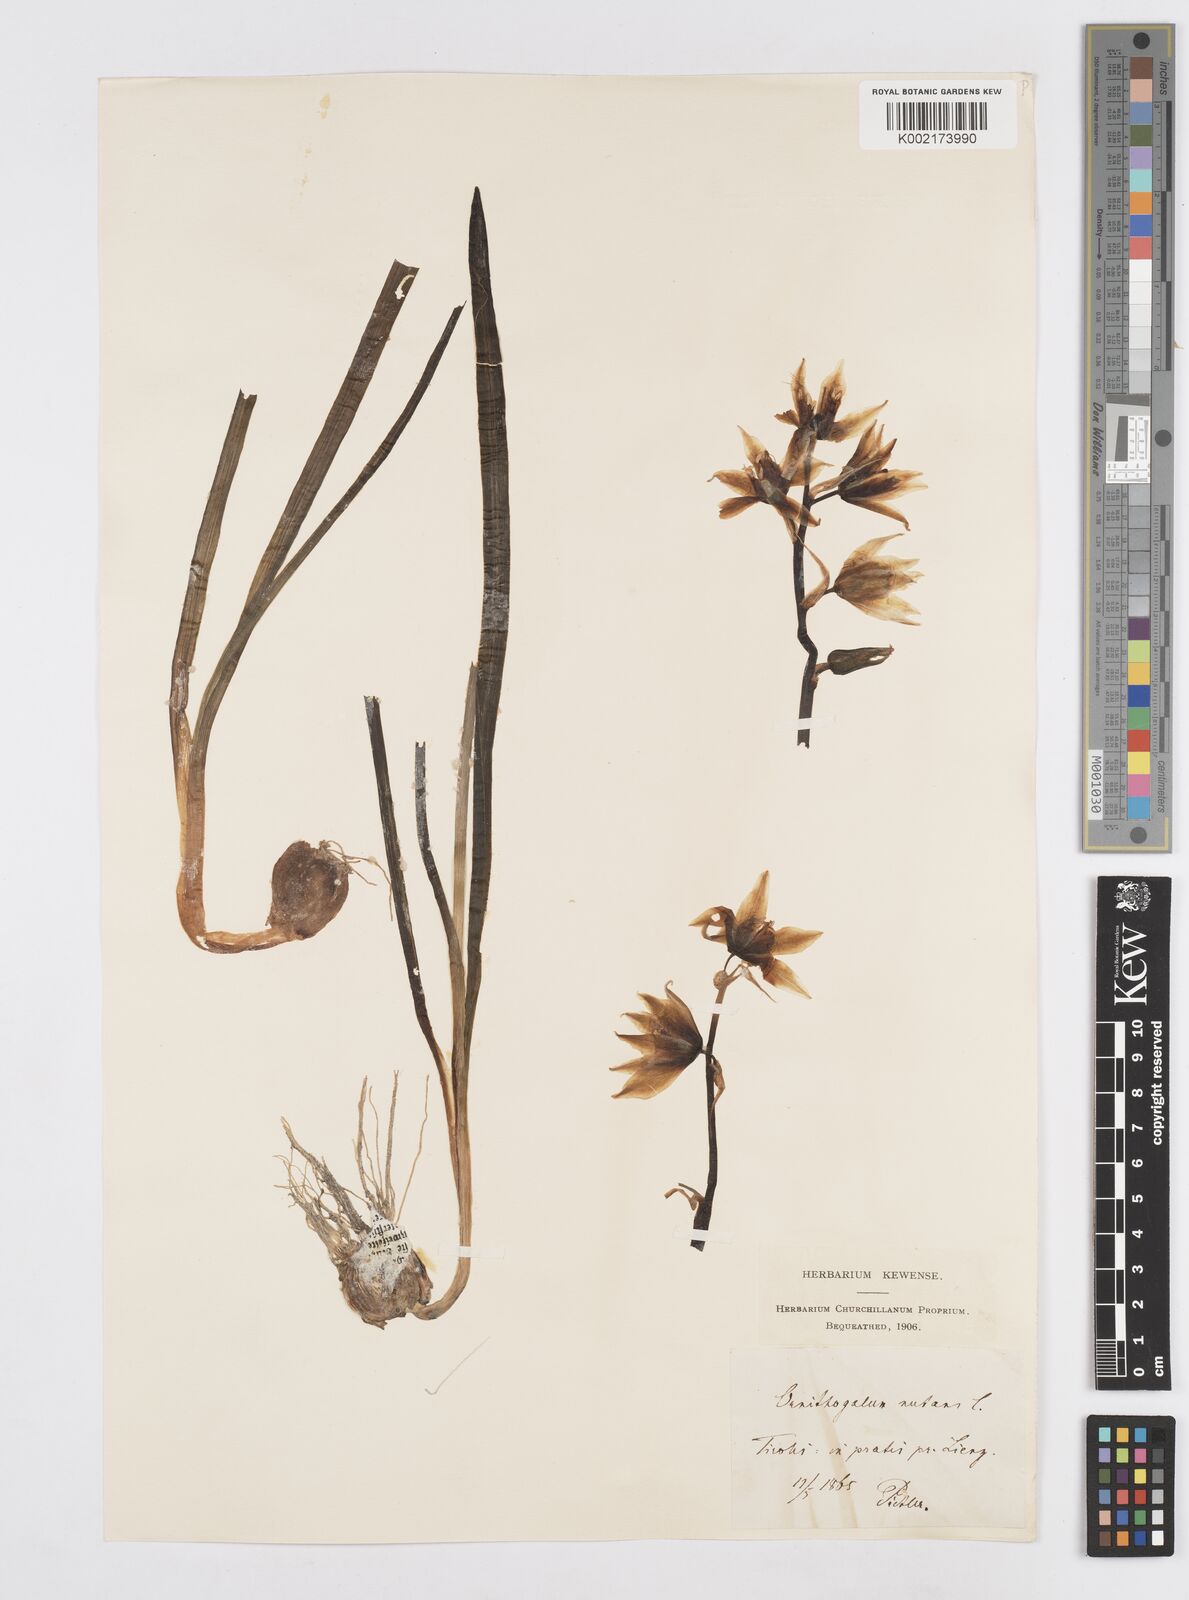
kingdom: Plantae
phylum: Tracheophyta
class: Liliopsida
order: Asparagales
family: Asparagaceae
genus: Ornithogalum
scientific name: Ornithogalum nutans
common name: Drooping star-of-bethlehem
